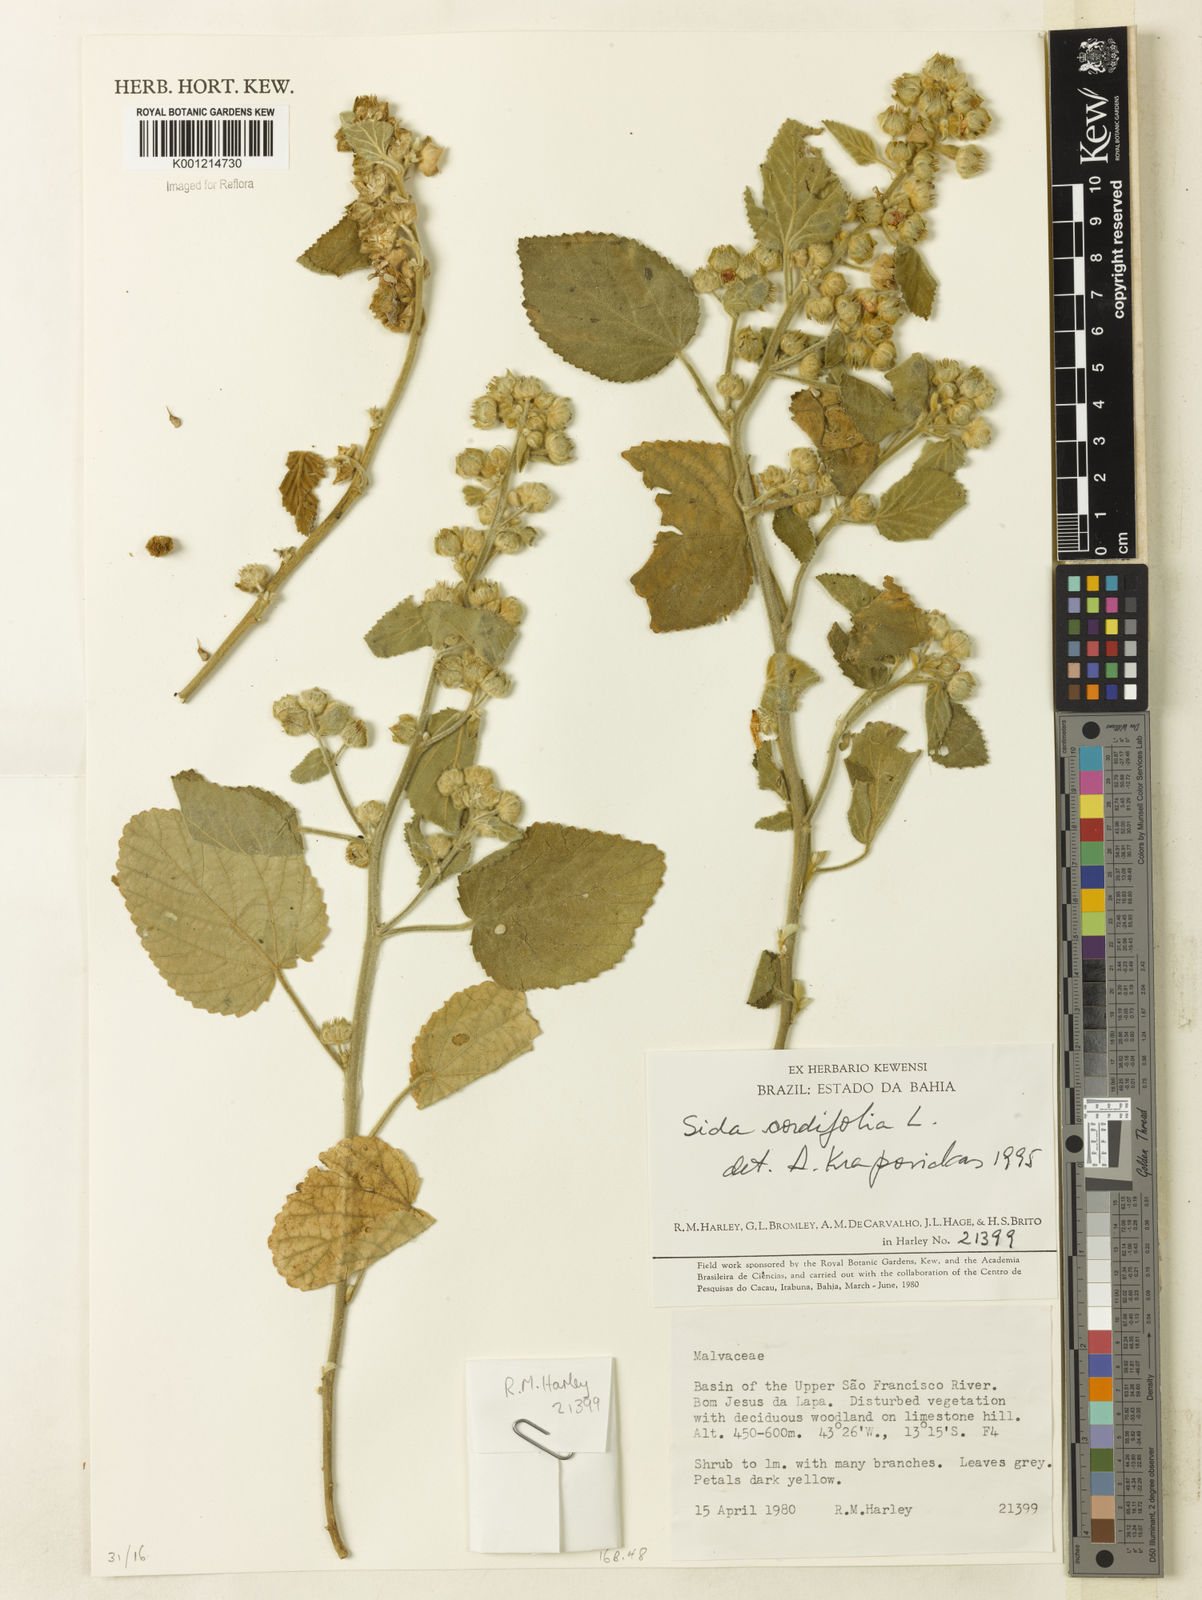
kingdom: Plantae
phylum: Tracheophyta
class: Magnoliopsida
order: Malvales
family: Malvaceae
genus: Sida
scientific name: Sida cordifolia
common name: Ilima
